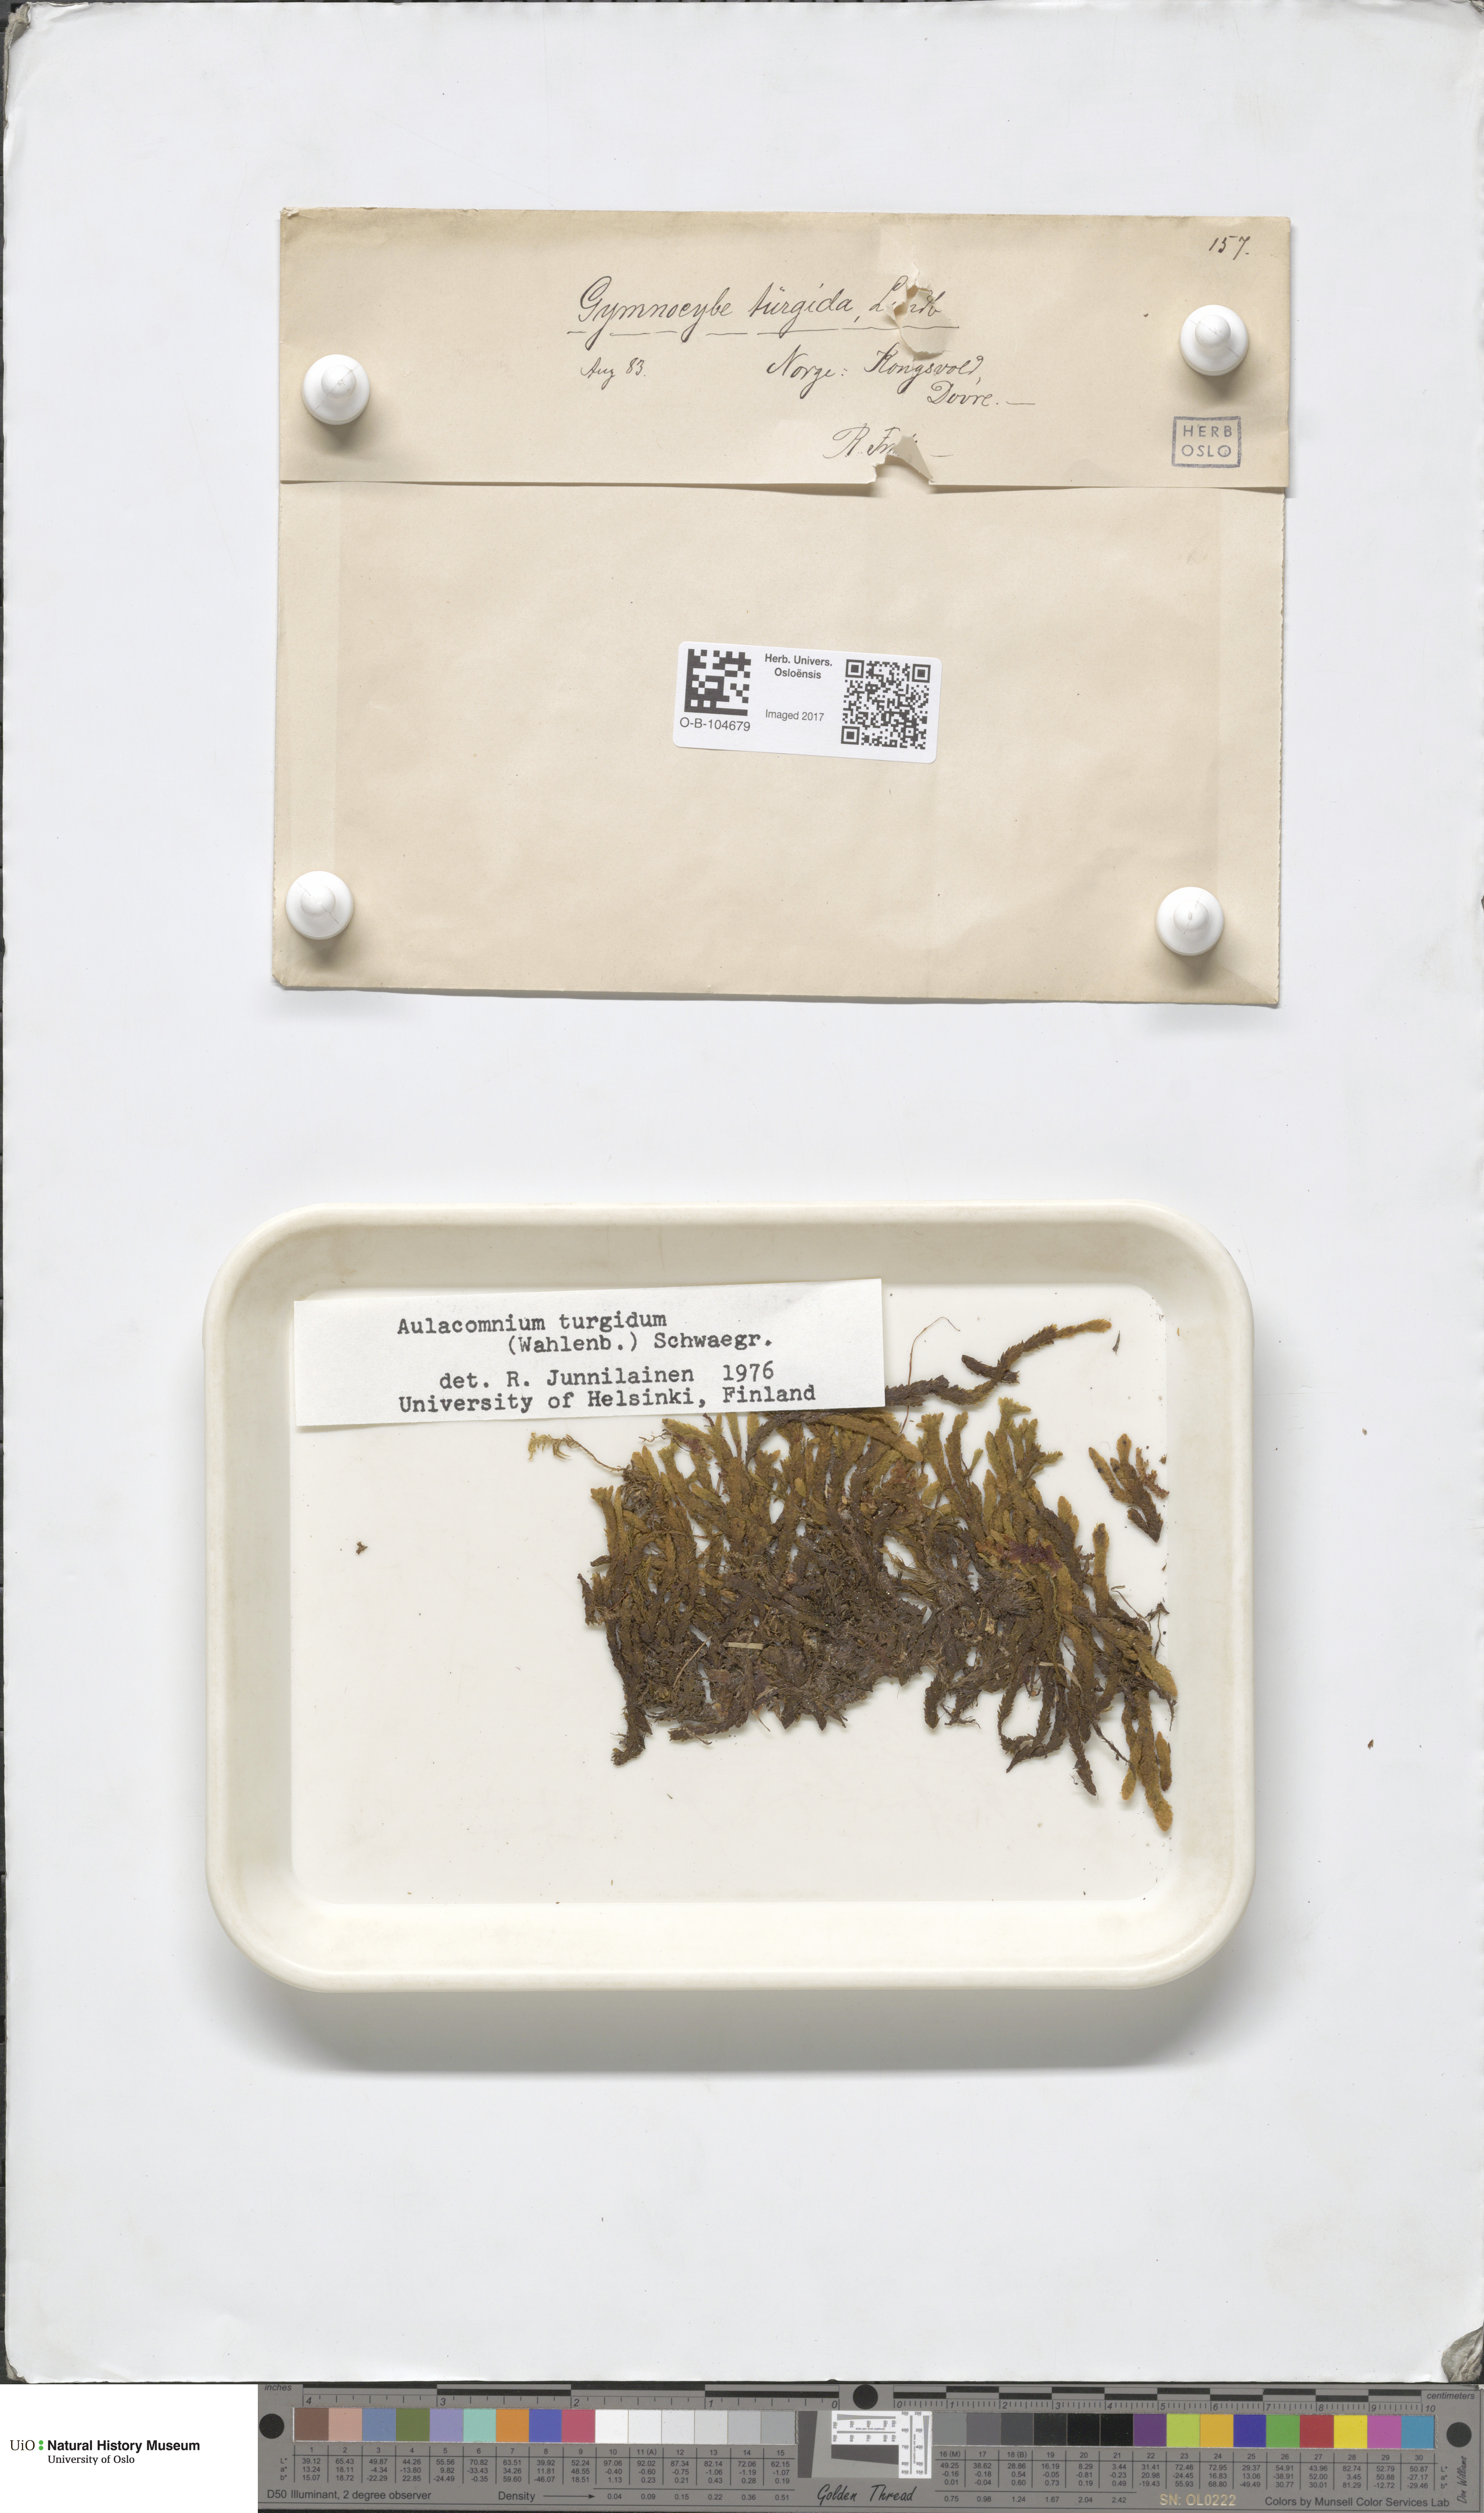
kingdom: Plantae
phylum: Bryophyta
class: Bryopsida
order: Aulacomniales
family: Aulacomniaceae
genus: Aulacomnium
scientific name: Aulacomnium turgidum
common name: Mountain groove moss
